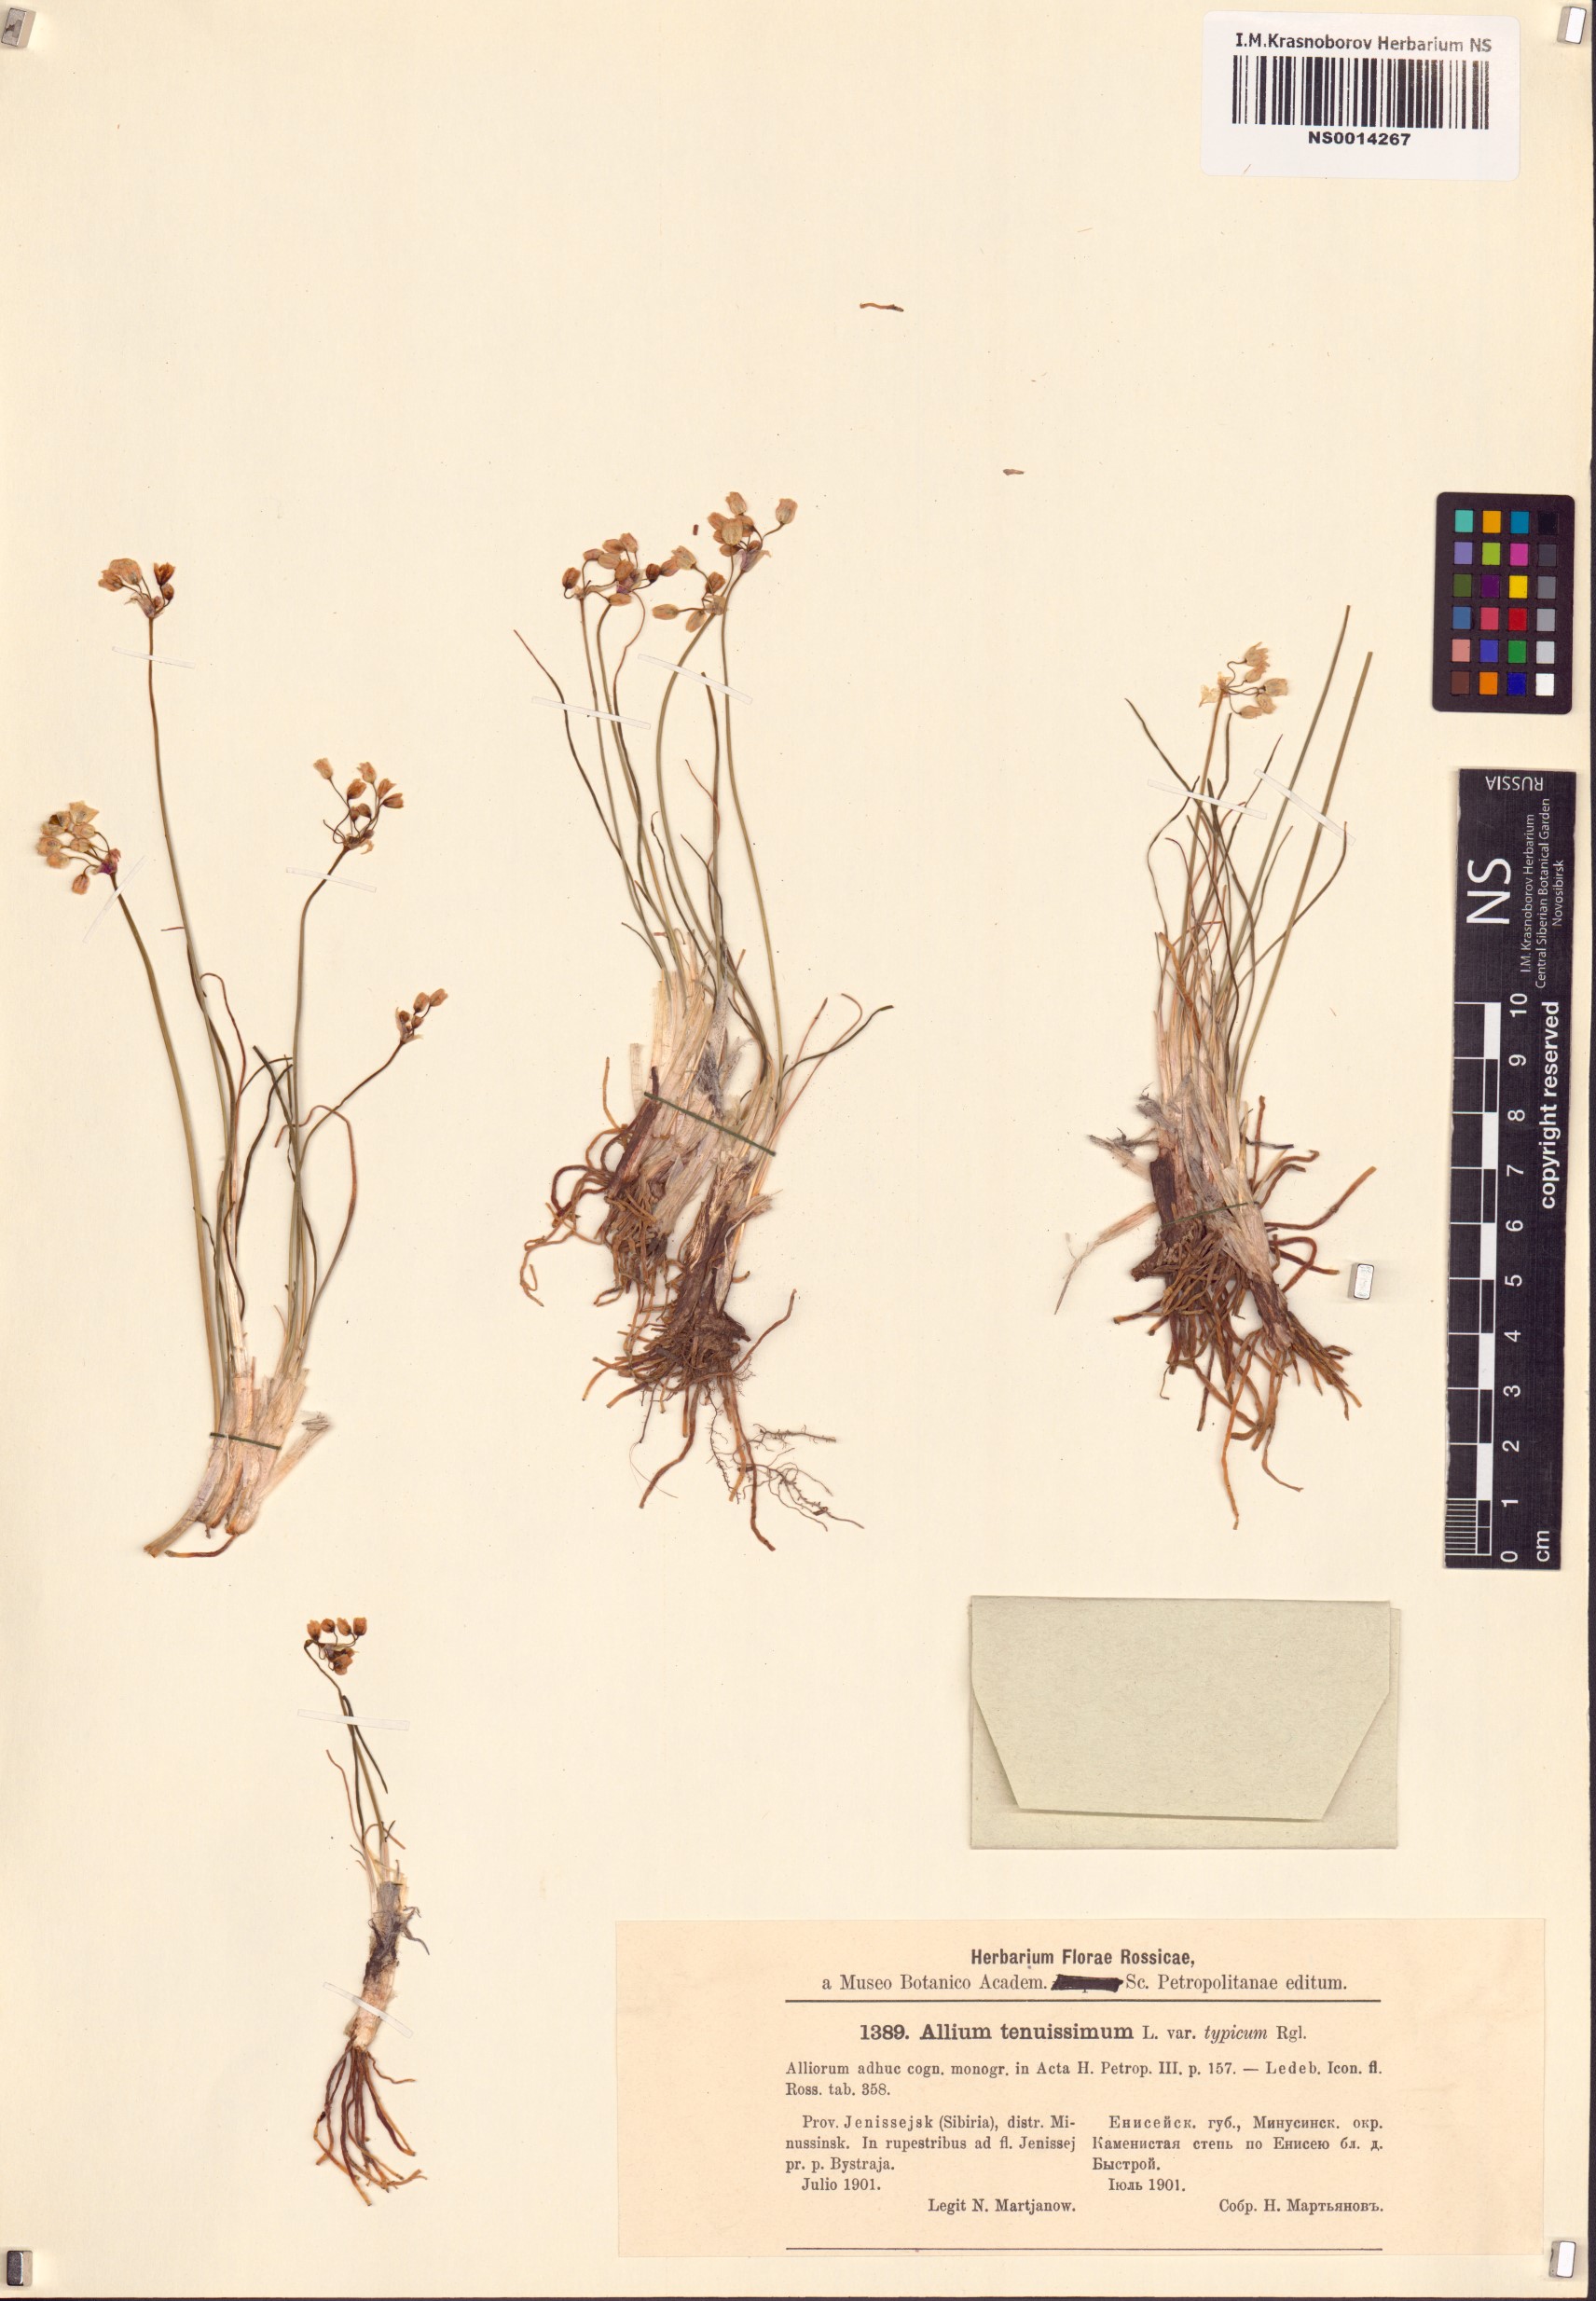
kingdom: Plantae
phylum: Tracheophyta
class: Liliopsida
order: Asparagales
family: Amaryllidaceae
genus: Allium
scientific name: Allium tenuissimum
